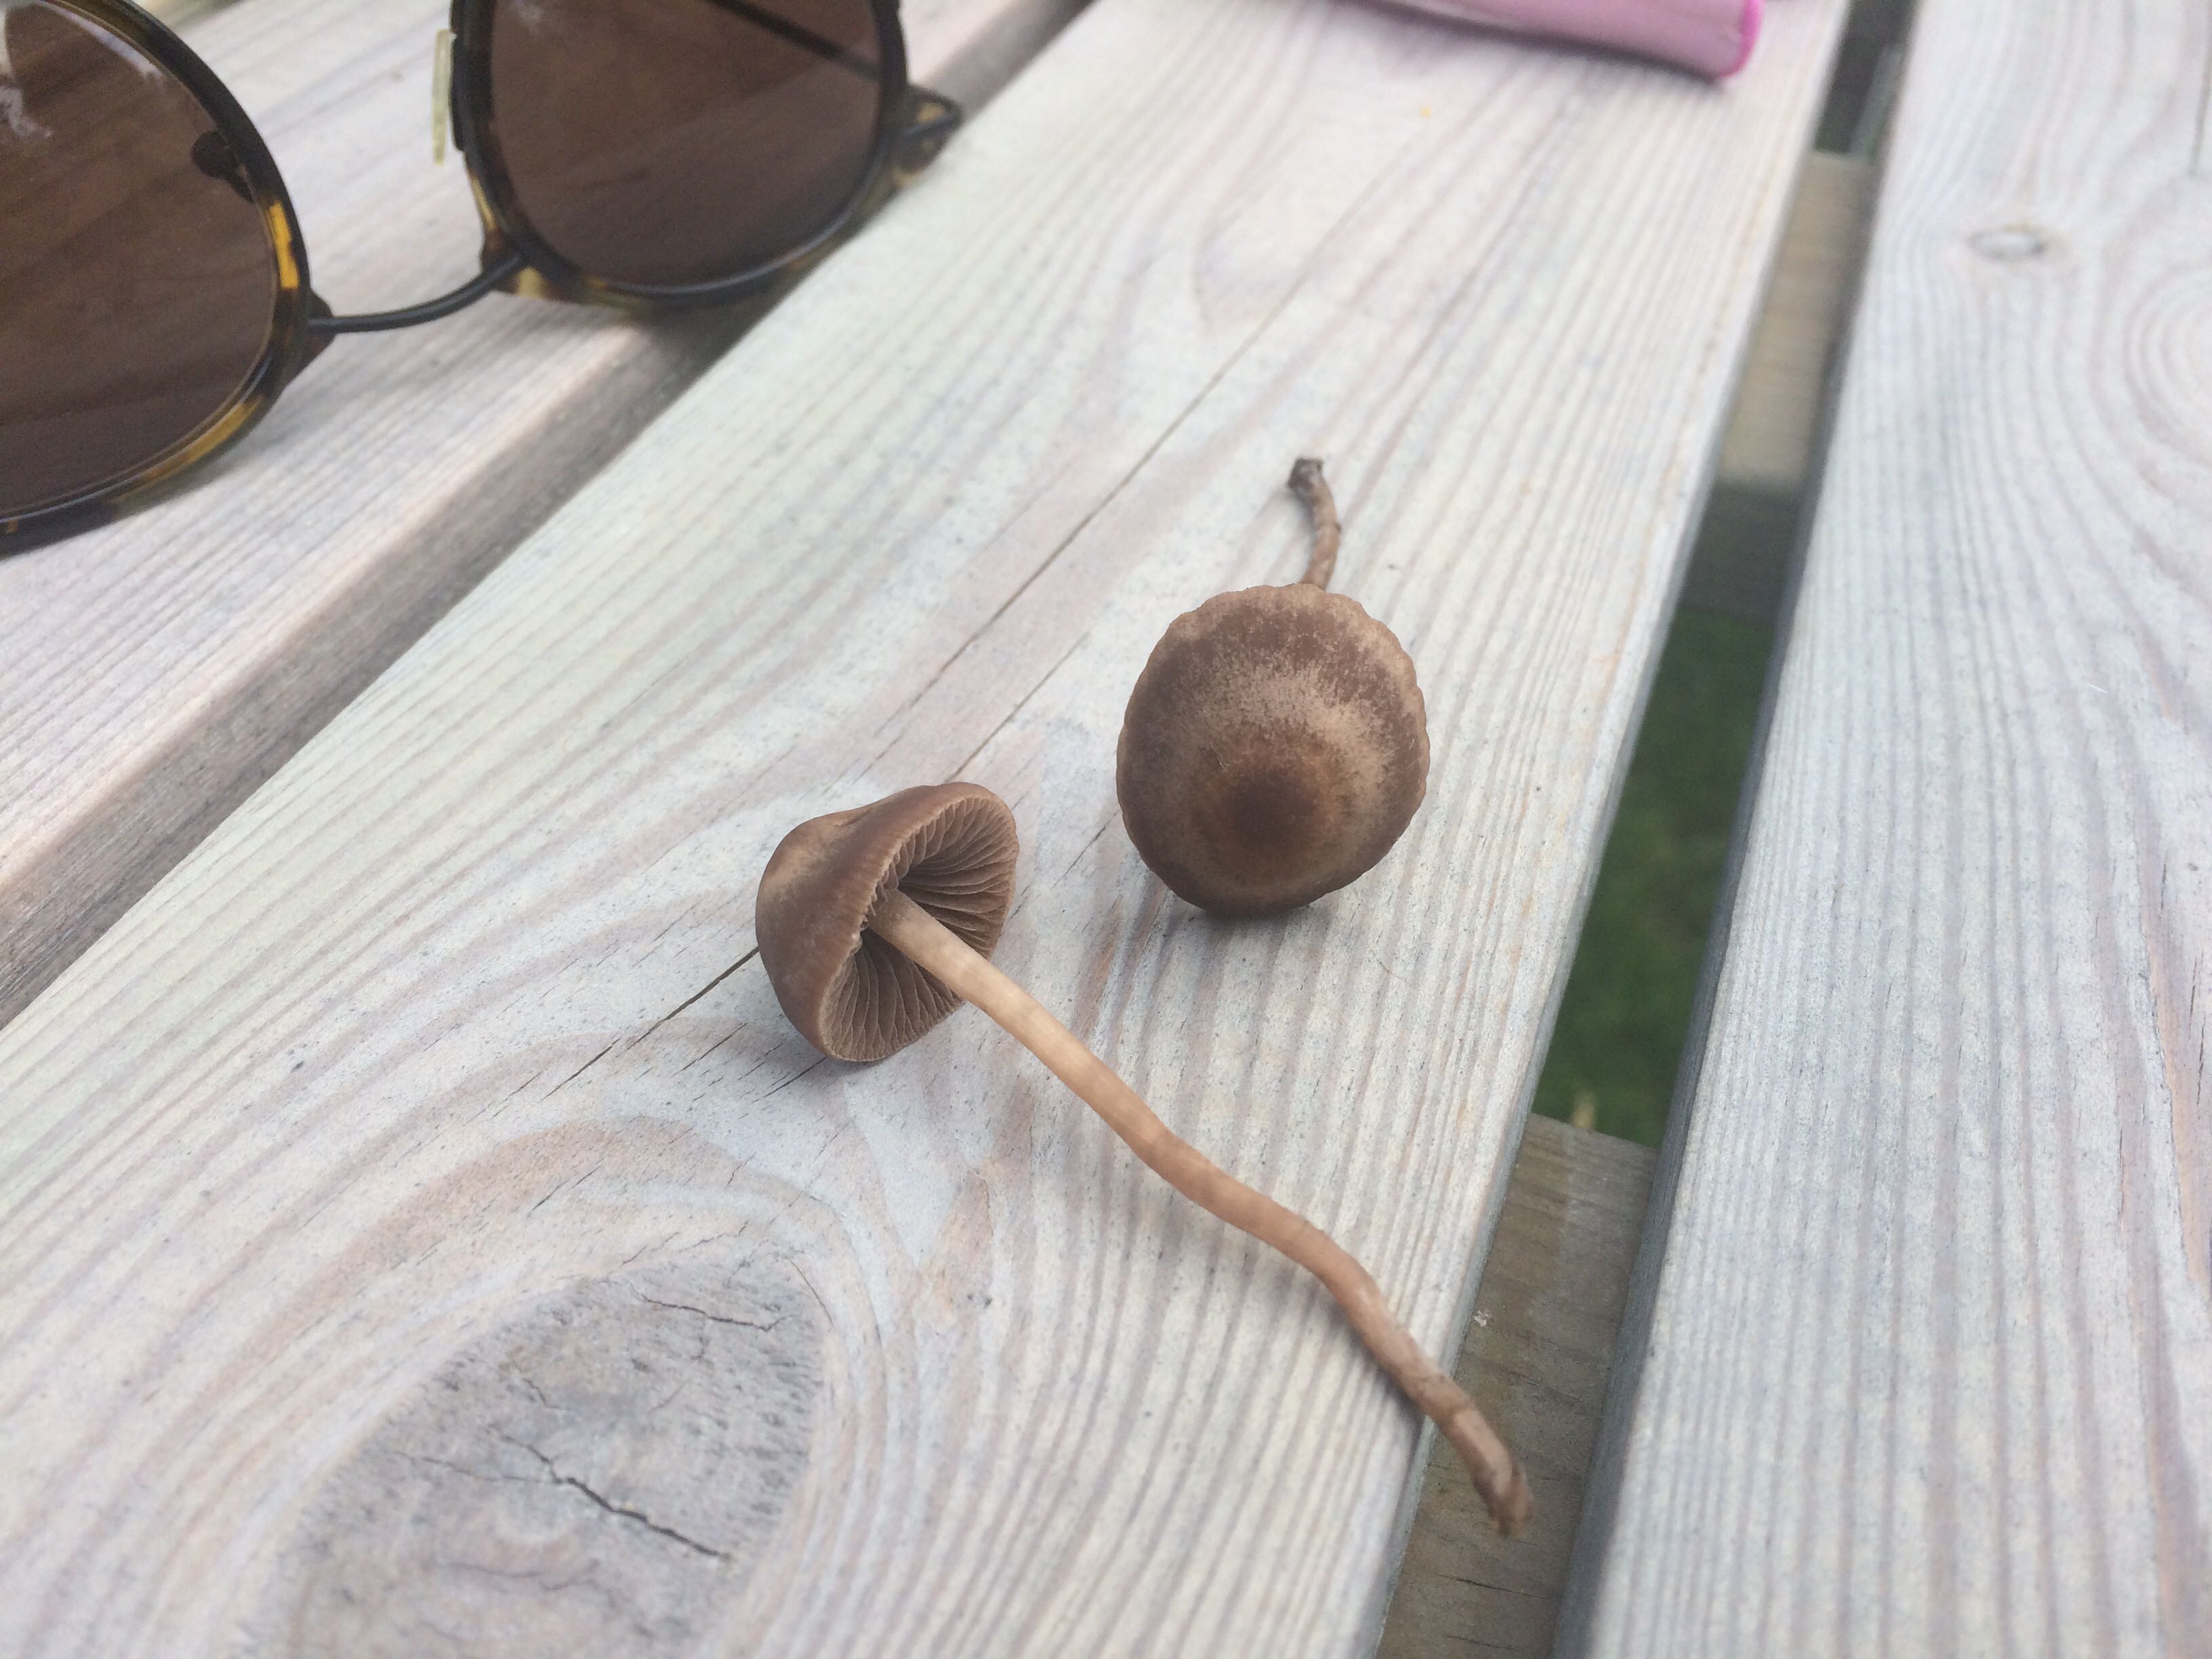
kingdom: Fungi
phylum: Basidiomycota
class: Agaricomycetes
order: Agaricales
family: Bolbitiaceae
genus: Panaeolina
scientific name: Panaeolina foenisecii
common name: høslætsvamp
